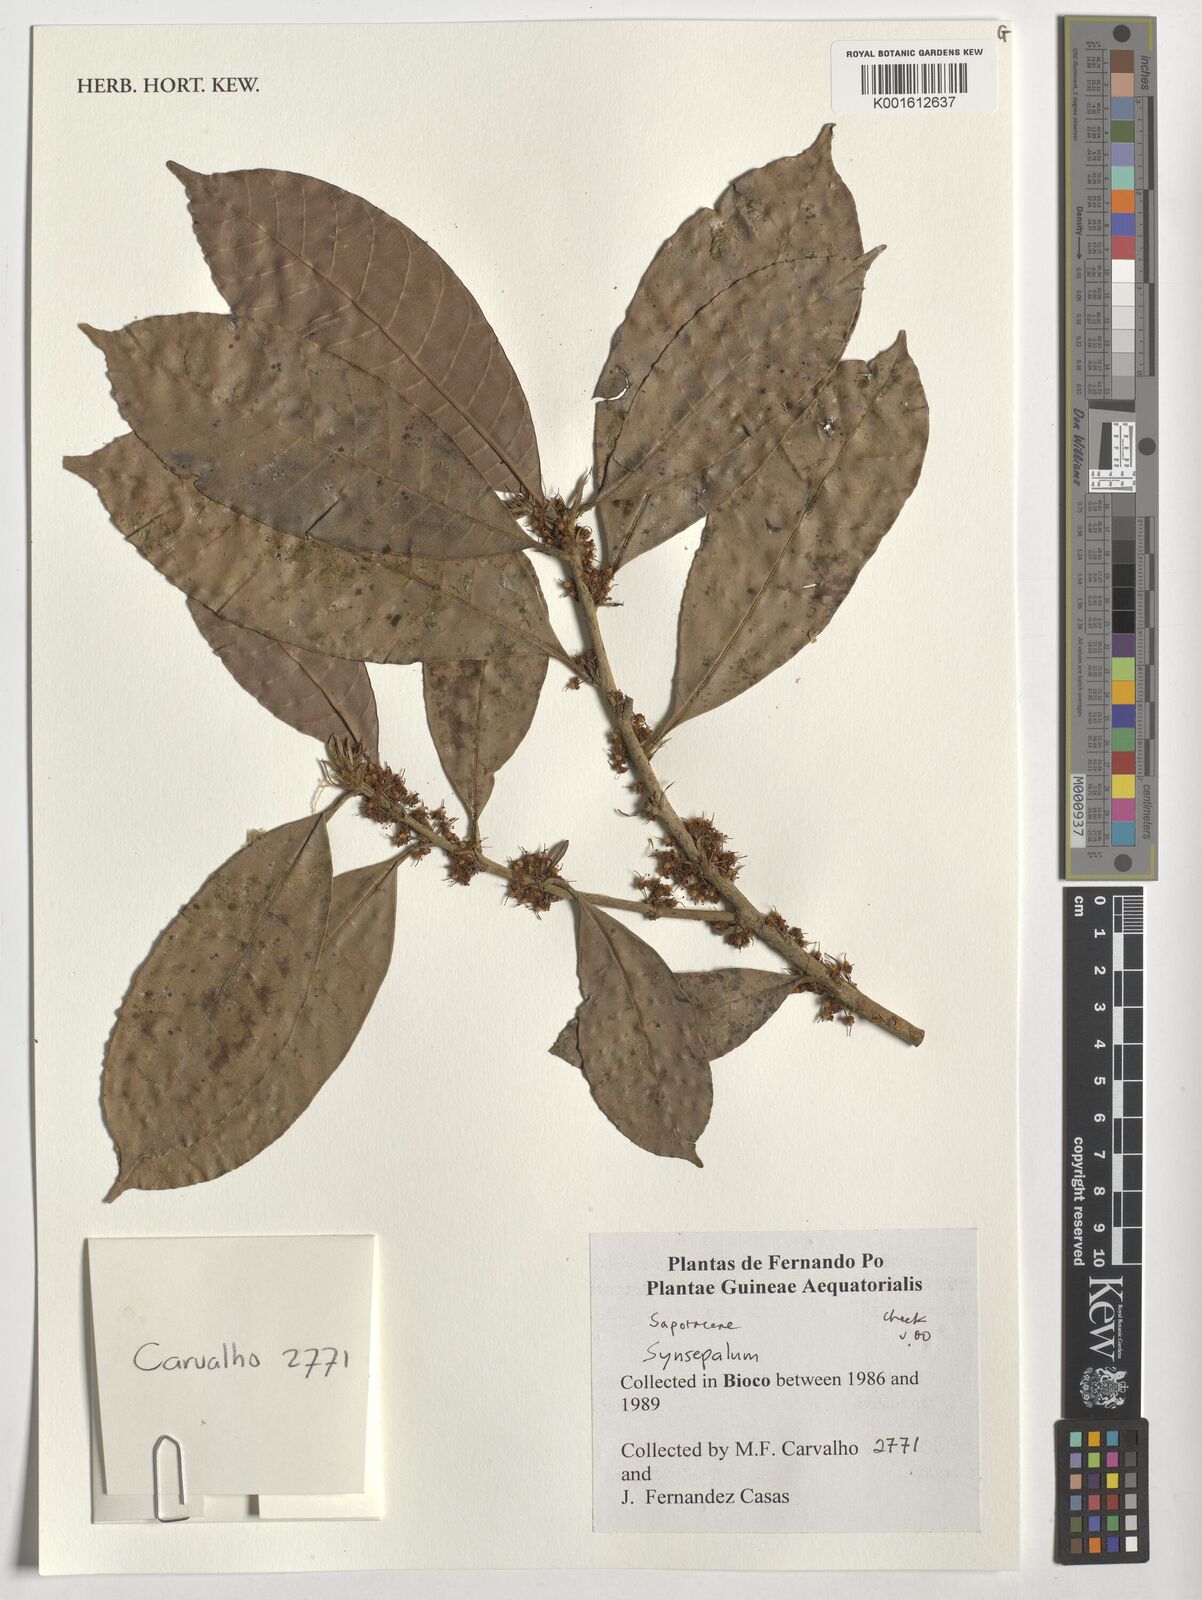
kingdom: Plantae
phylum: Tracheophyta
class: Magnoliopsida
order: Ericales
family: Sapotaceae
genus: Synsepalum
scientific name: Synsepalum
